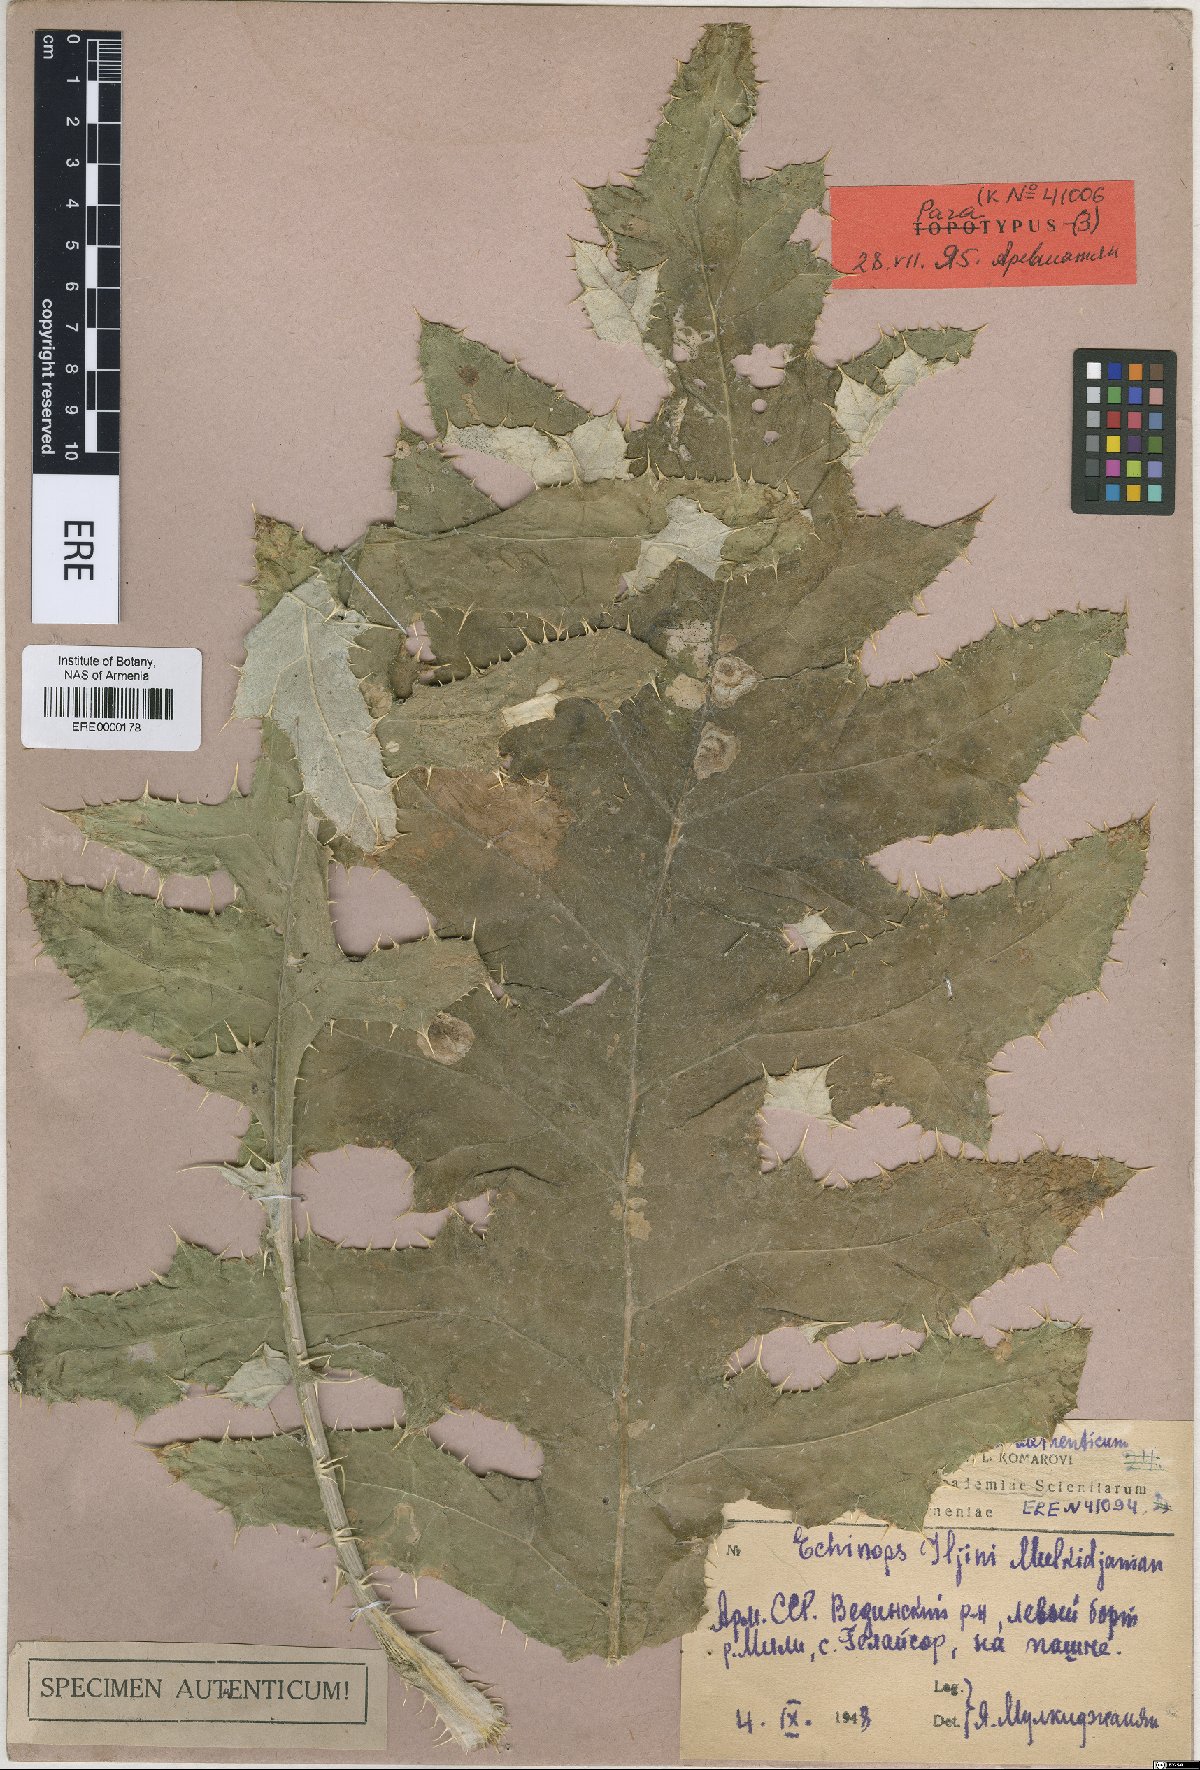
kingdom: Plantae
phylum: Tracheophyta
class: Magnoliopsida
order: Asterales
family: Asteraceae
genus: Echinops
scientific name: Echinops transcaucasicus
